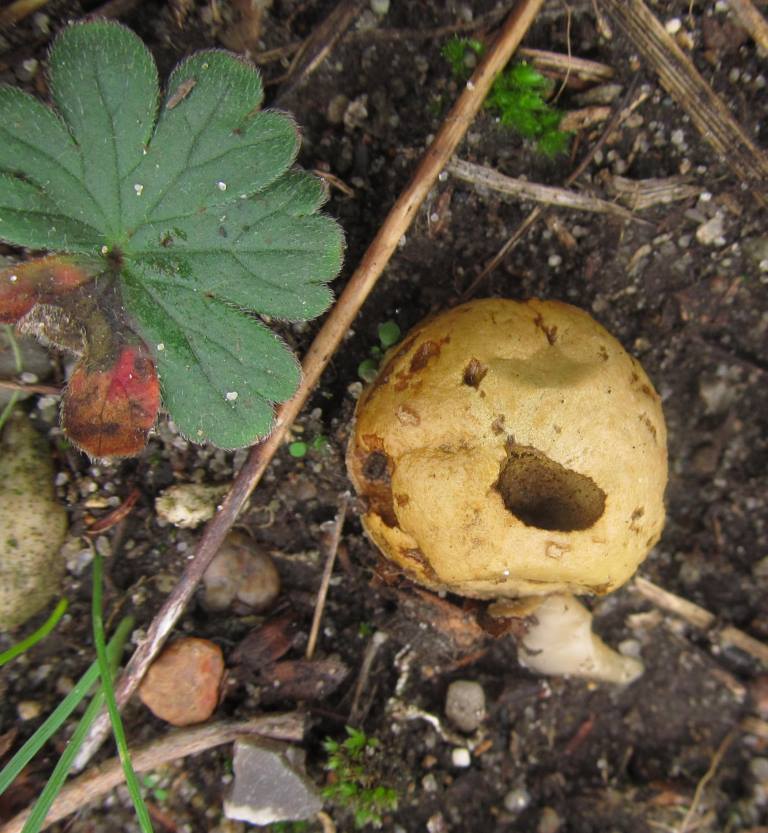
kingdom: Fungi
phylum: Basidiomycota
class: Agaricomycetes
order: Agaricales
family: Lycoperdaceae
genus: Lycoperdon
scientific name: Lycoperdon dermoxanthum
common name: Dwarf puffball
